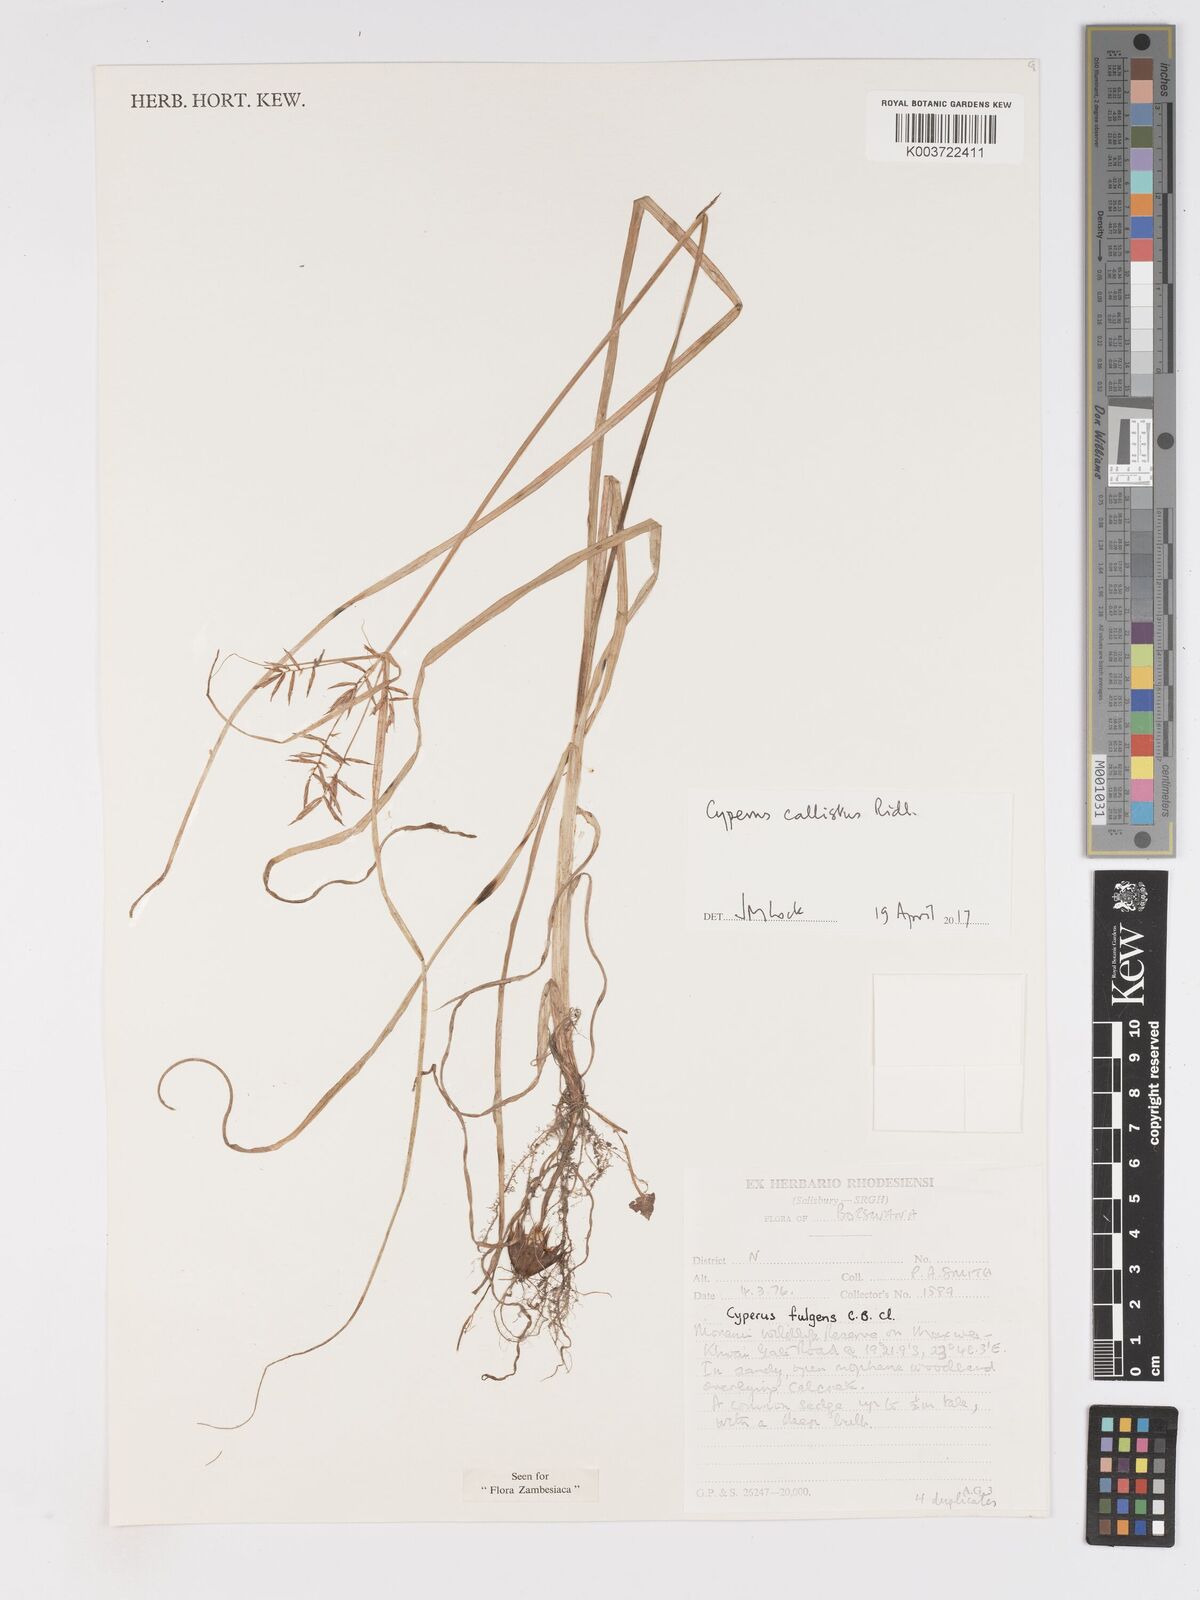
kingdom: Plantae
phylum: Tracheophyta
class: Liliopsida
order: Poales
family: Cyperaceae
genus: Cyperus
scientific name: Cyperus callistus
